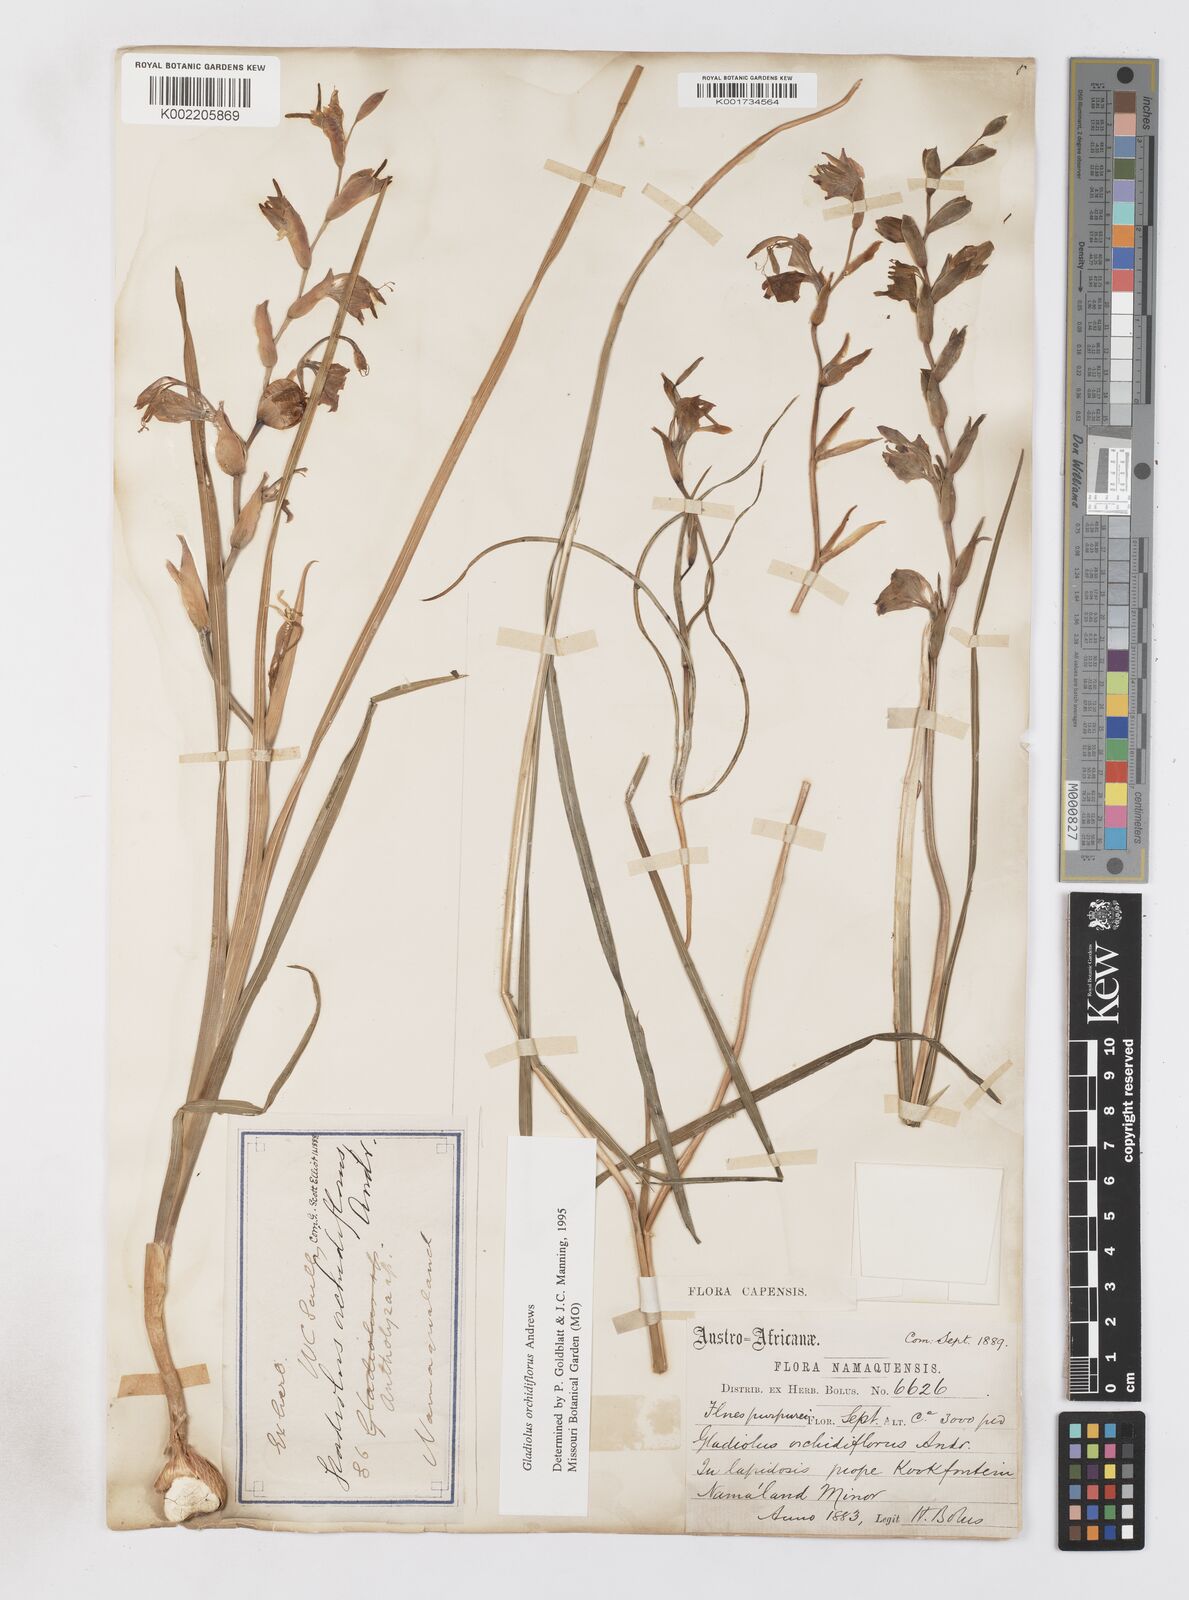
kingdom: Plantae
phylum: Tracheophyta
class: Liliopsida
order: Asparagales
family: Iridaceae
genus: Gladiolus
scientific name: Gladiolus orchidiflorus
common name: Gray kalkoentjie
